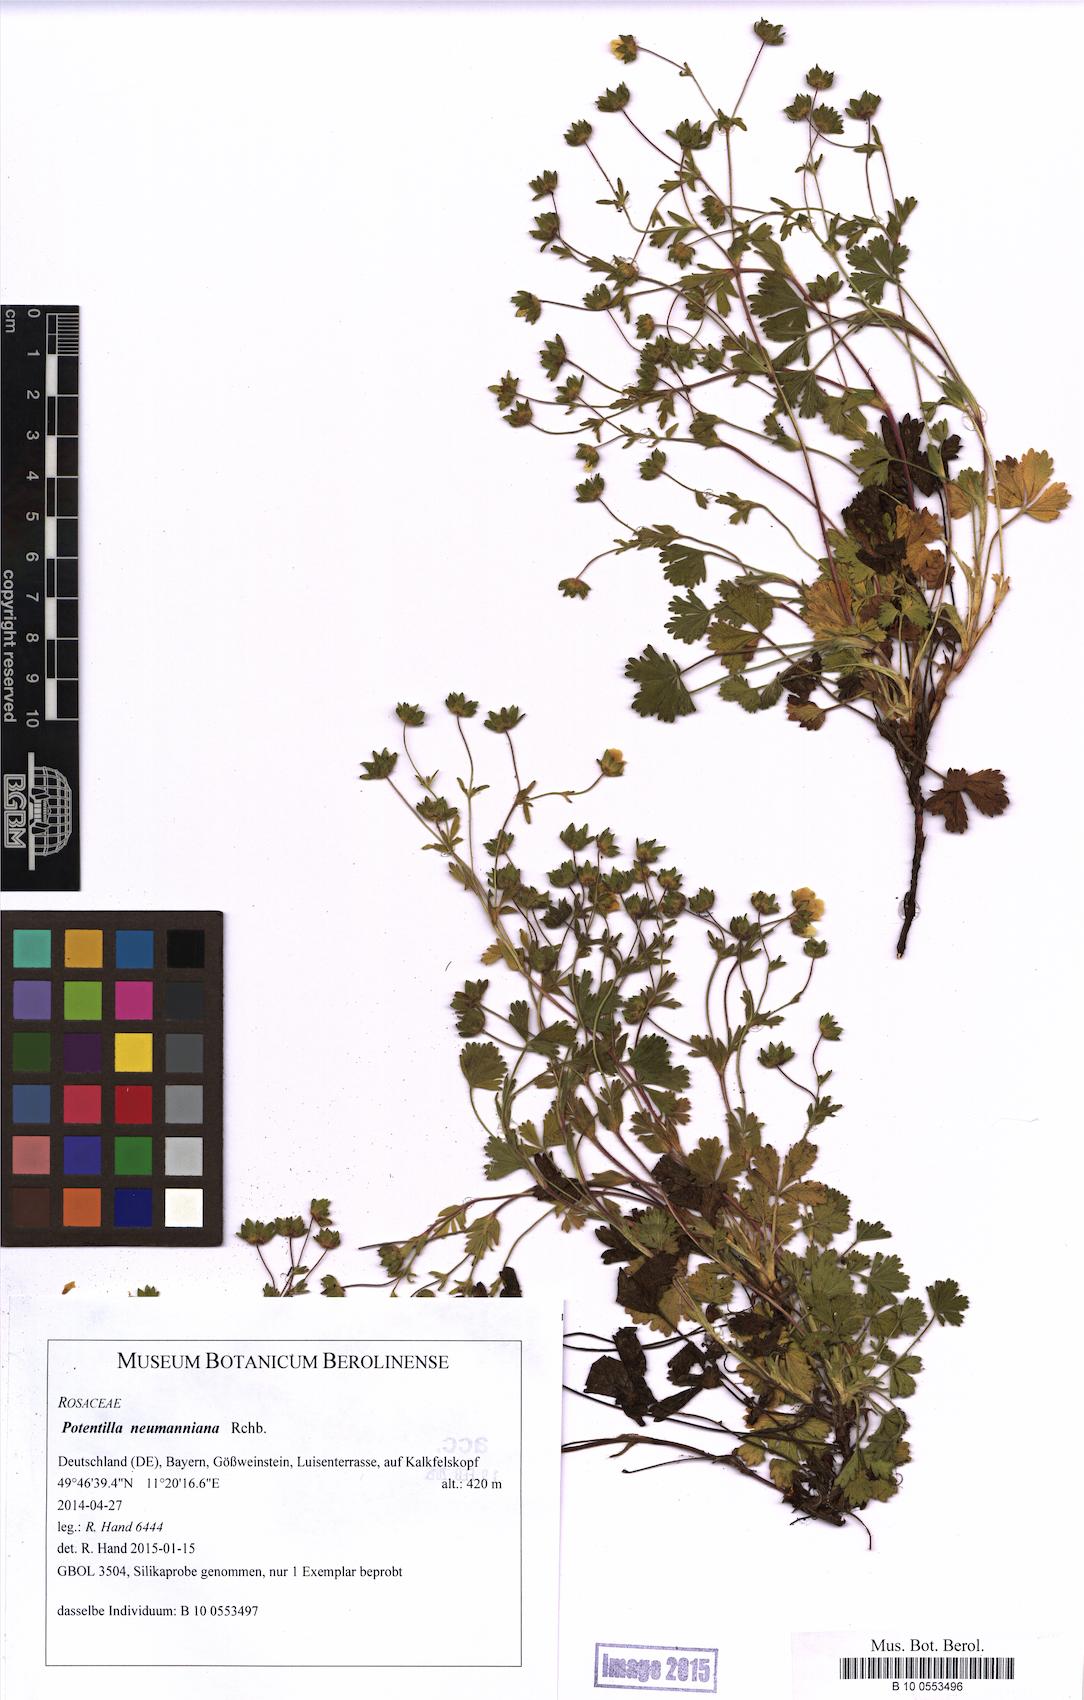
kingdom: Plantae
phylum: Tracheophyta
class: Magnoliopsida
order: Rosales
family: Rosaceae
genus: Potentilla
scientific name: Potentilla verna
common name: Spring cinquefoil
